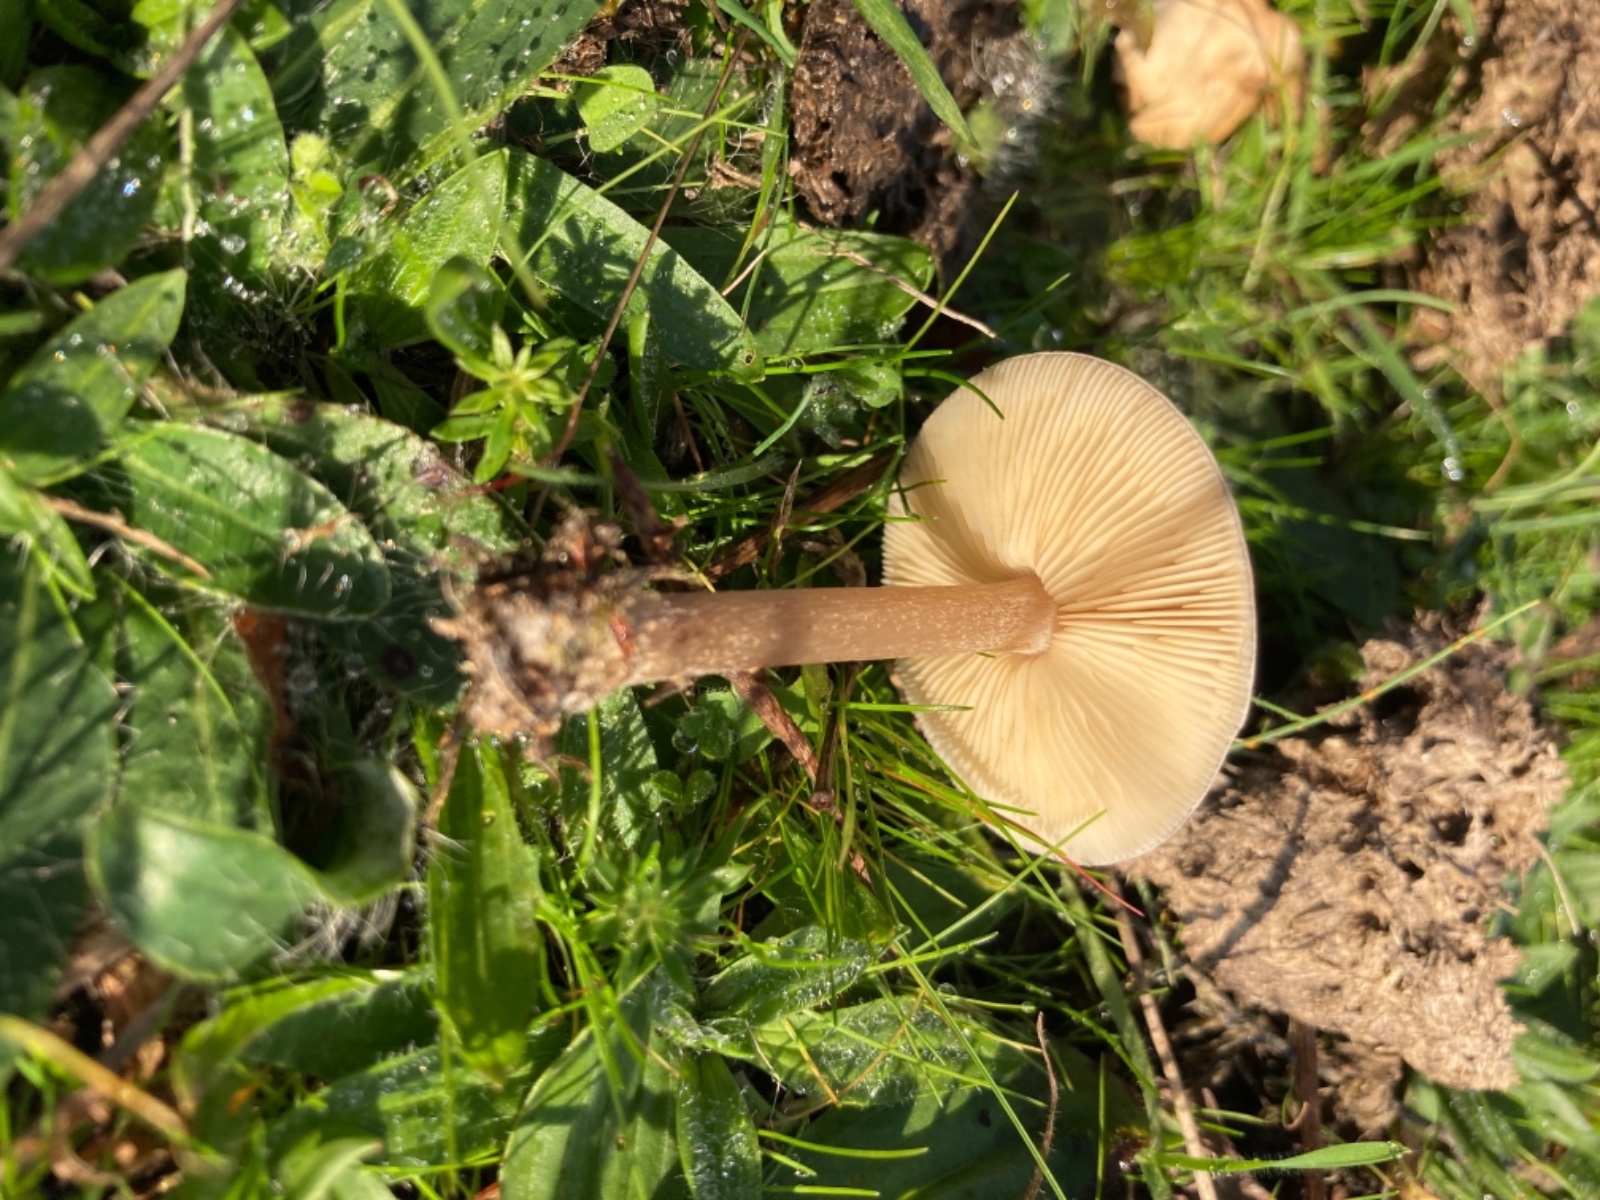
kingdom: Fungi
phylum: Basidiomycota
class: Agaricomycetes
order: Agaricales
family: Tricholomataceae
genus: Melanoleuca
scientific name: Melanoleuca
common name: munkehat
